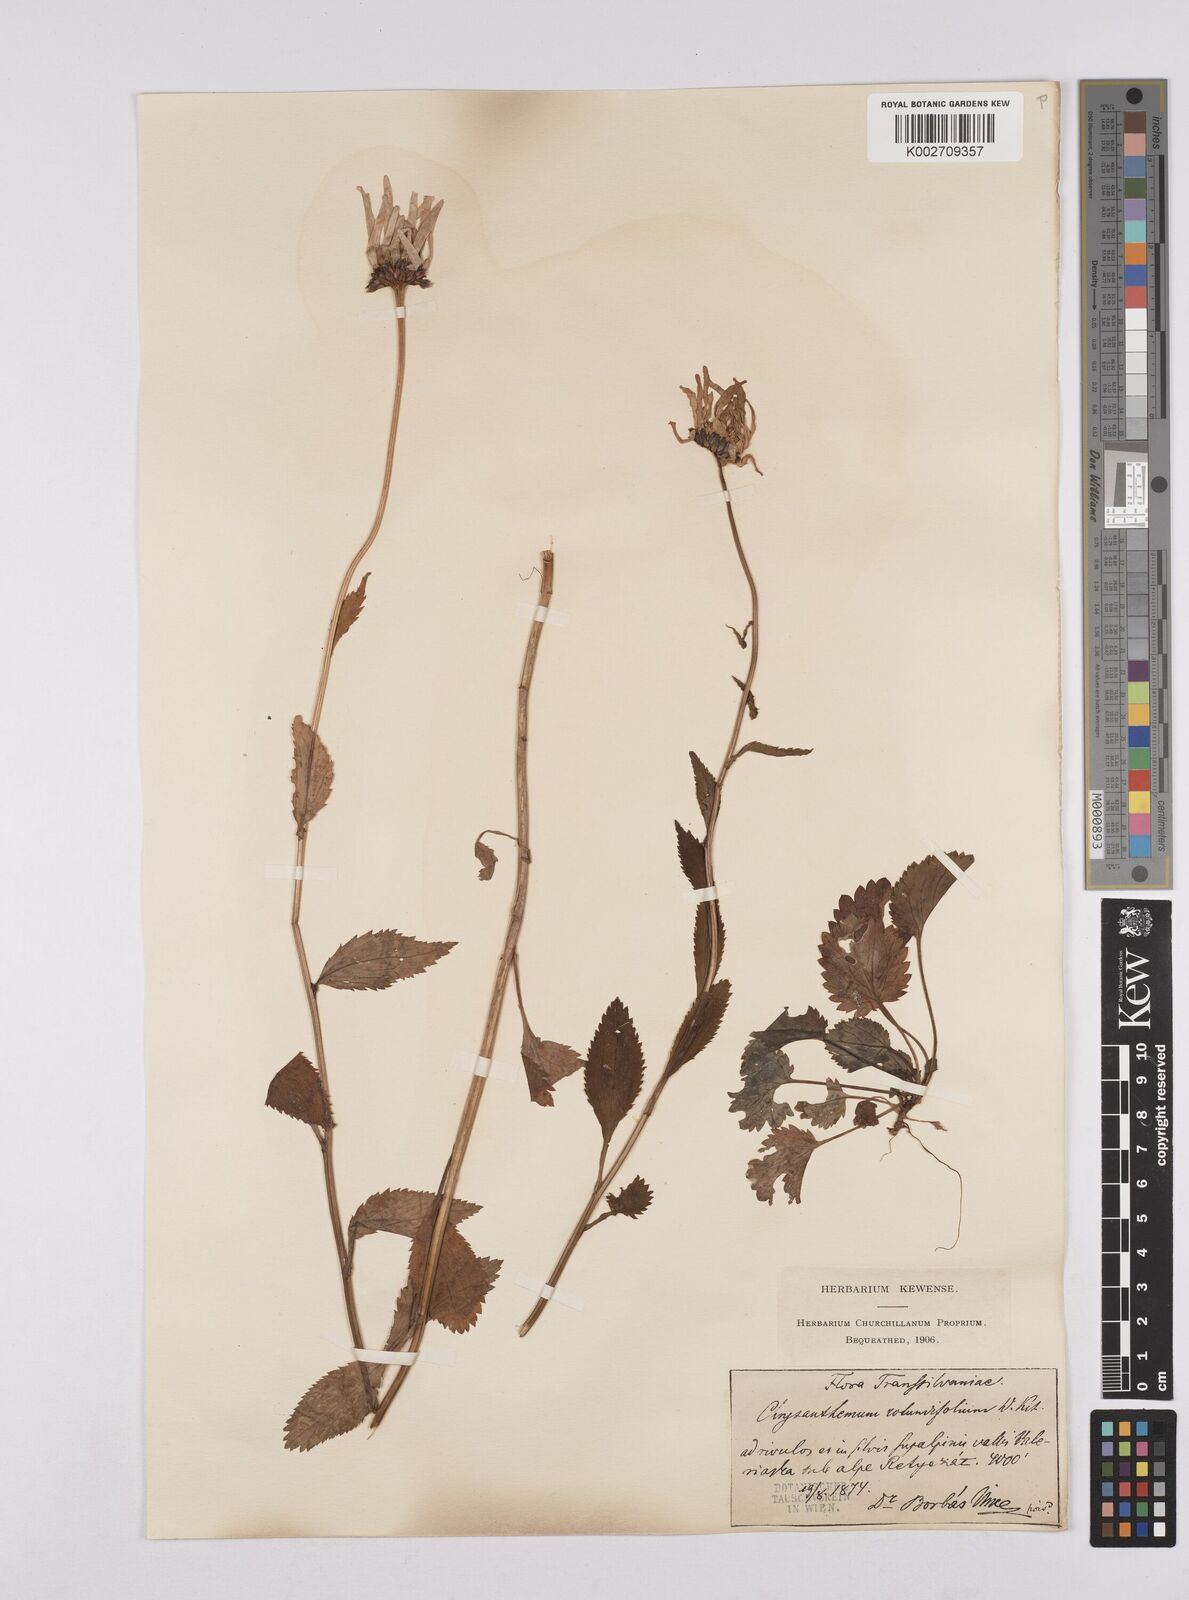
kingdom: Plantae
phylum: Tracheophyta
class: Magnoliopsida
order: Asterales
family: Asteraceae
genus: Leucanthemum
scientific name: Leucanthemum rotundifolium
